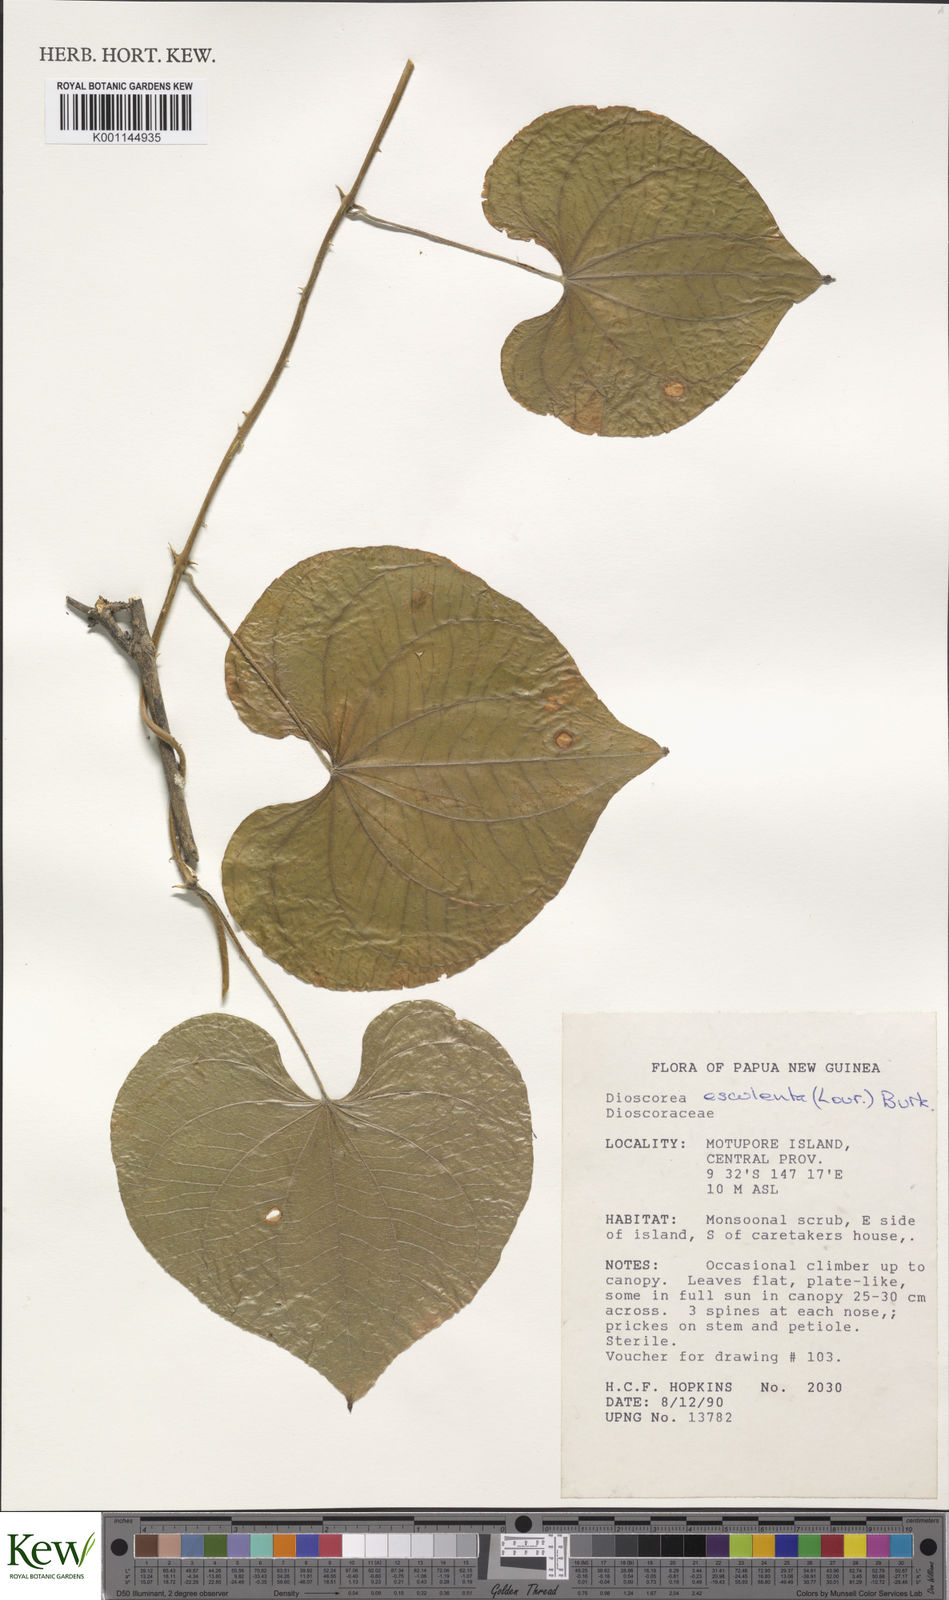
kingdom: Plantae
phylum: Tracheophyta
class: Liliopsida
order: Dioscoreales
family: Dioscoreaceae
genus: Dioscorea
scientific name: Dioscorea esculenta
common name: Chinese yam
